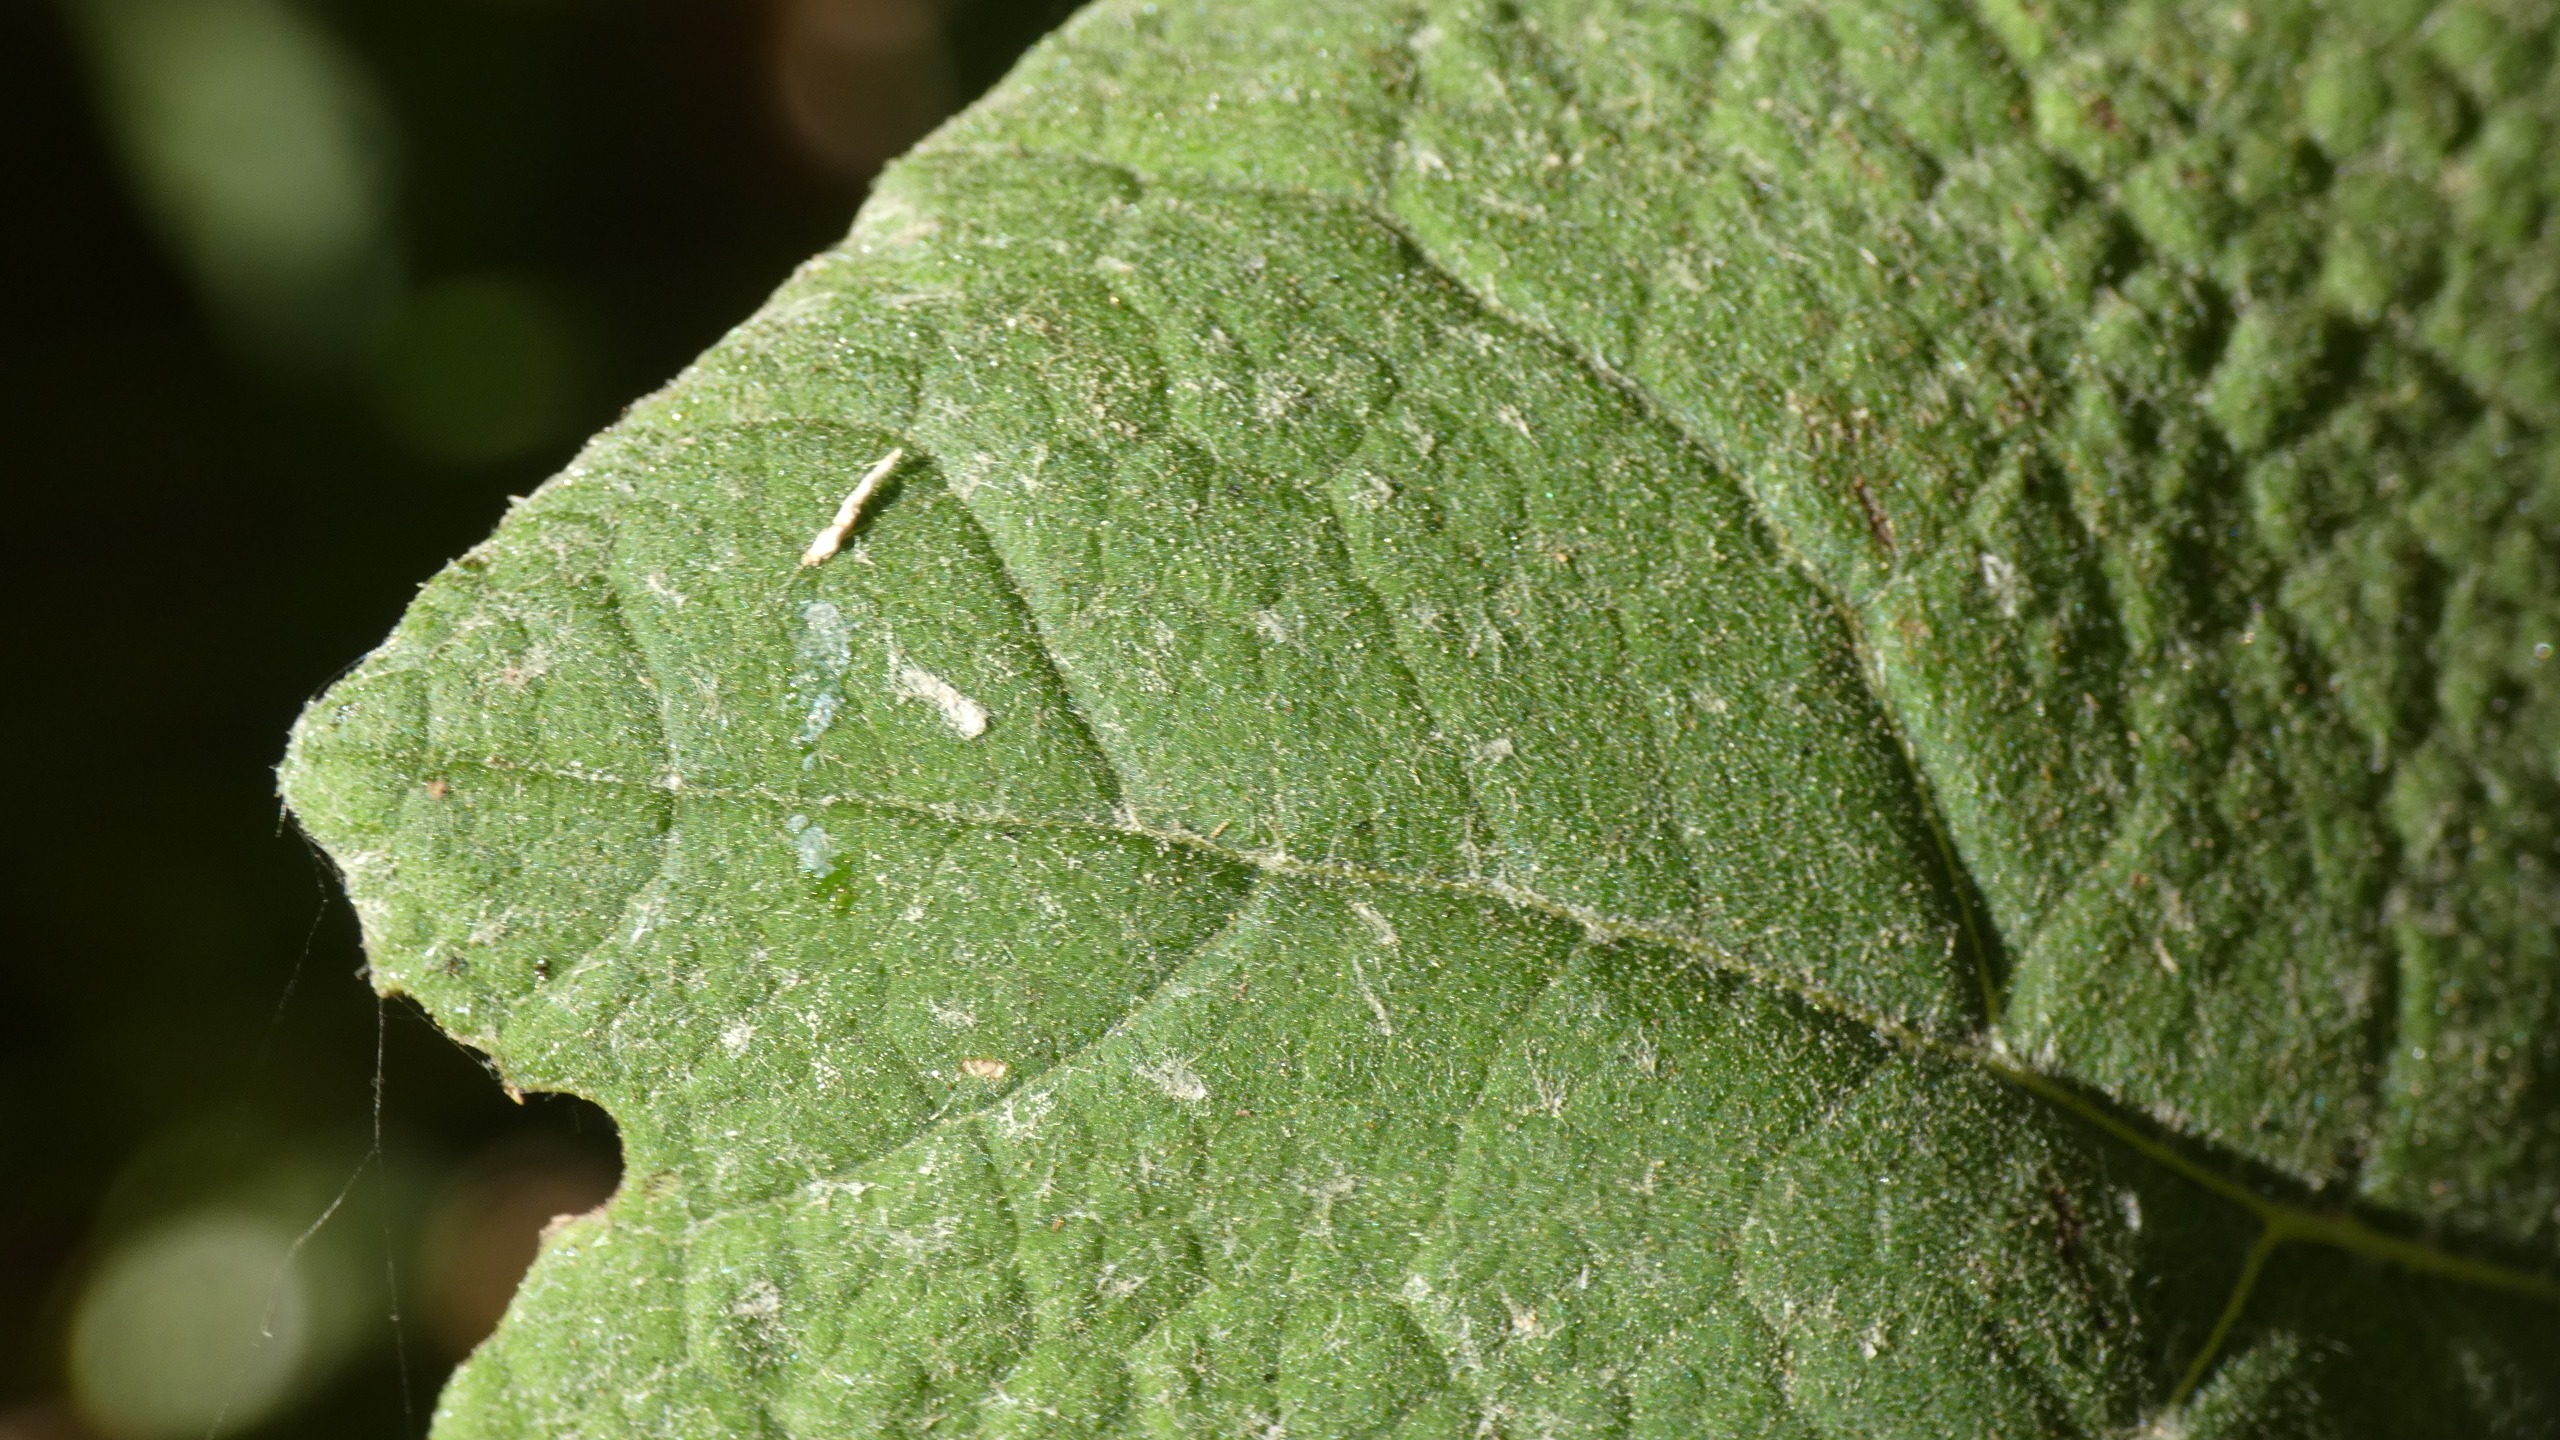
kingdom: Plantae
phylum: Tracheophyta
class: Magnoliopsida
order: Asterales
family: Asteraceae
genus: Petasites
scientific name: Petasites hybridus
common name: Rød hestehov
